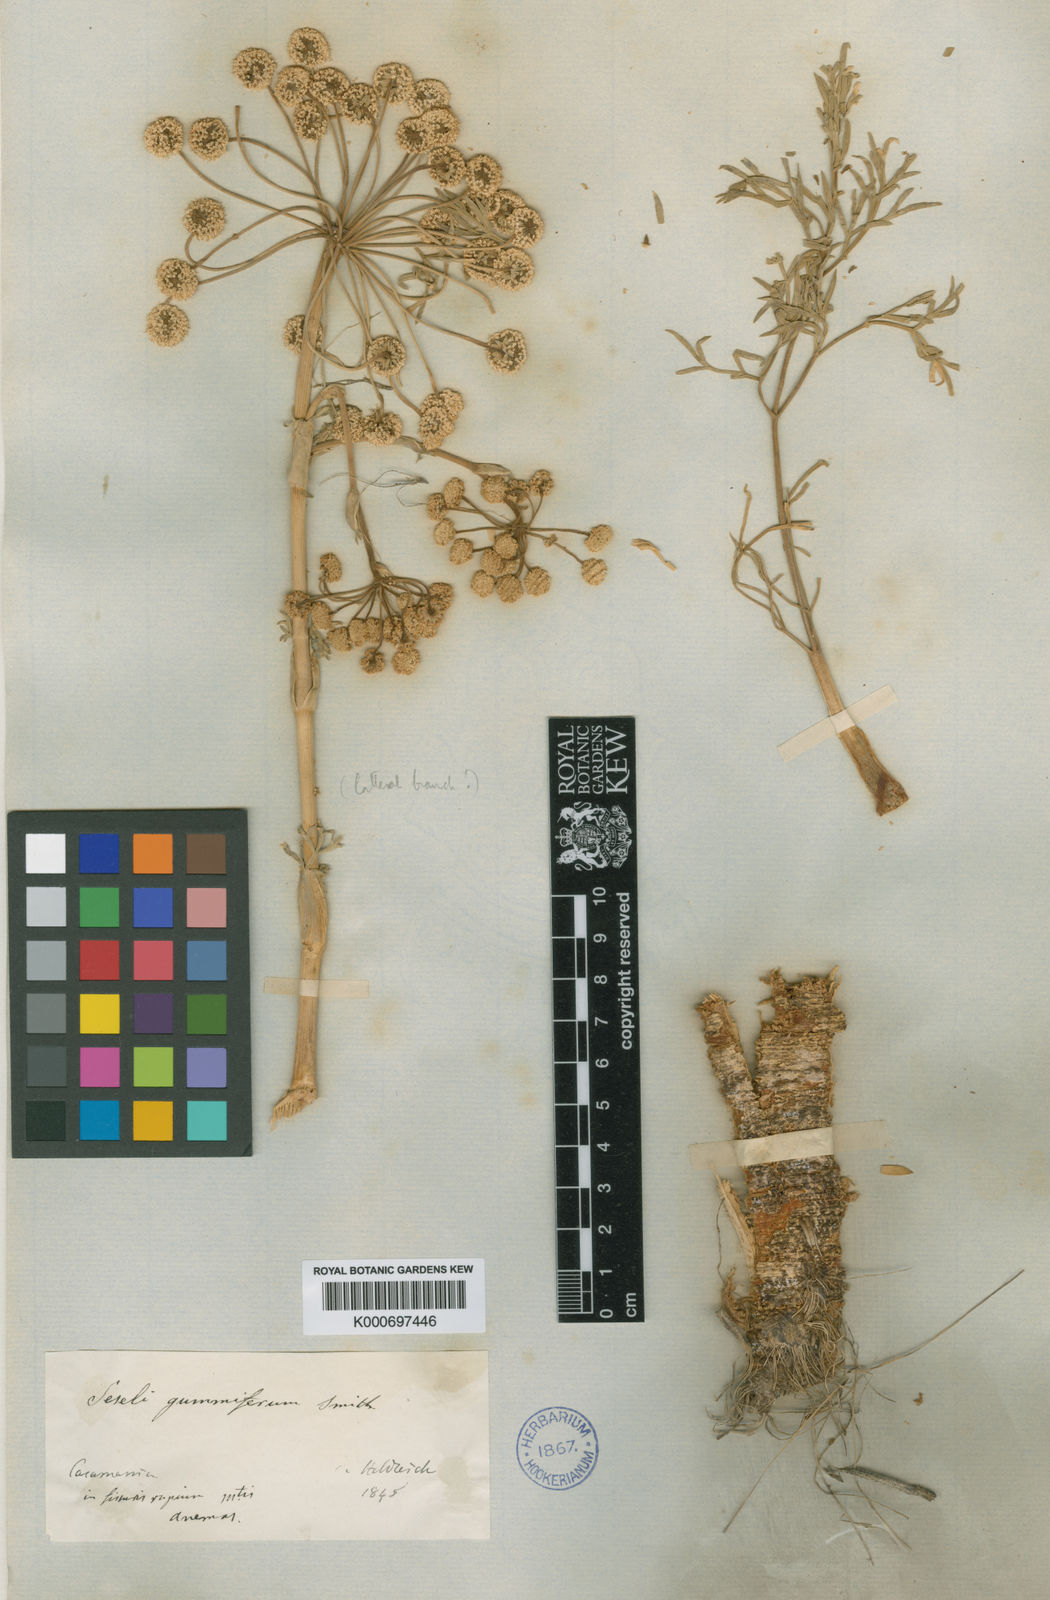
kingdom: Plantae
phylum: Tracheophyta
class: Magnoliopsida
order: Apiales
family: Apiaceae
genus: Seseli
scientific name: Seseli corymbosum
